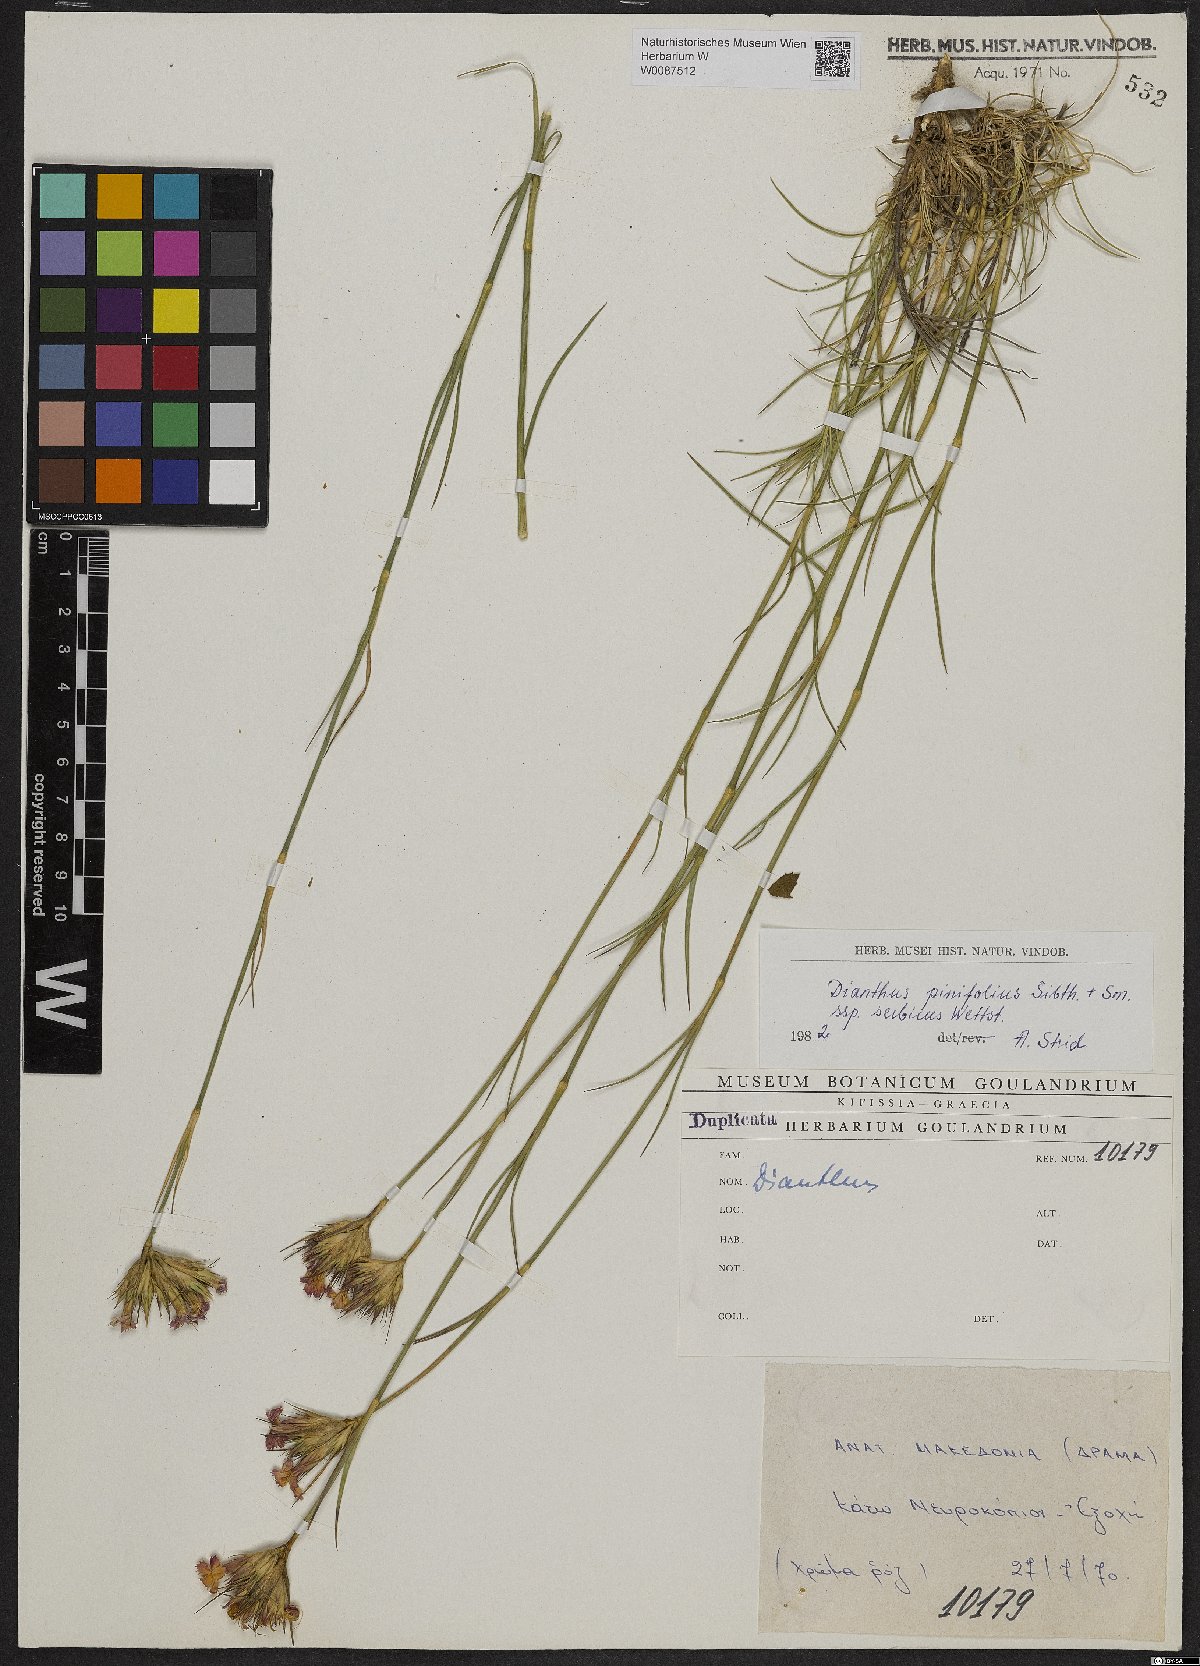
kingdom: Plantae
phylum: Tracheophyta
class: Magnoliopsida
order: Caryophyllales
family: Caryophyllaceae
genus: Dianthus
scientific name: Dianthus pinifolius
